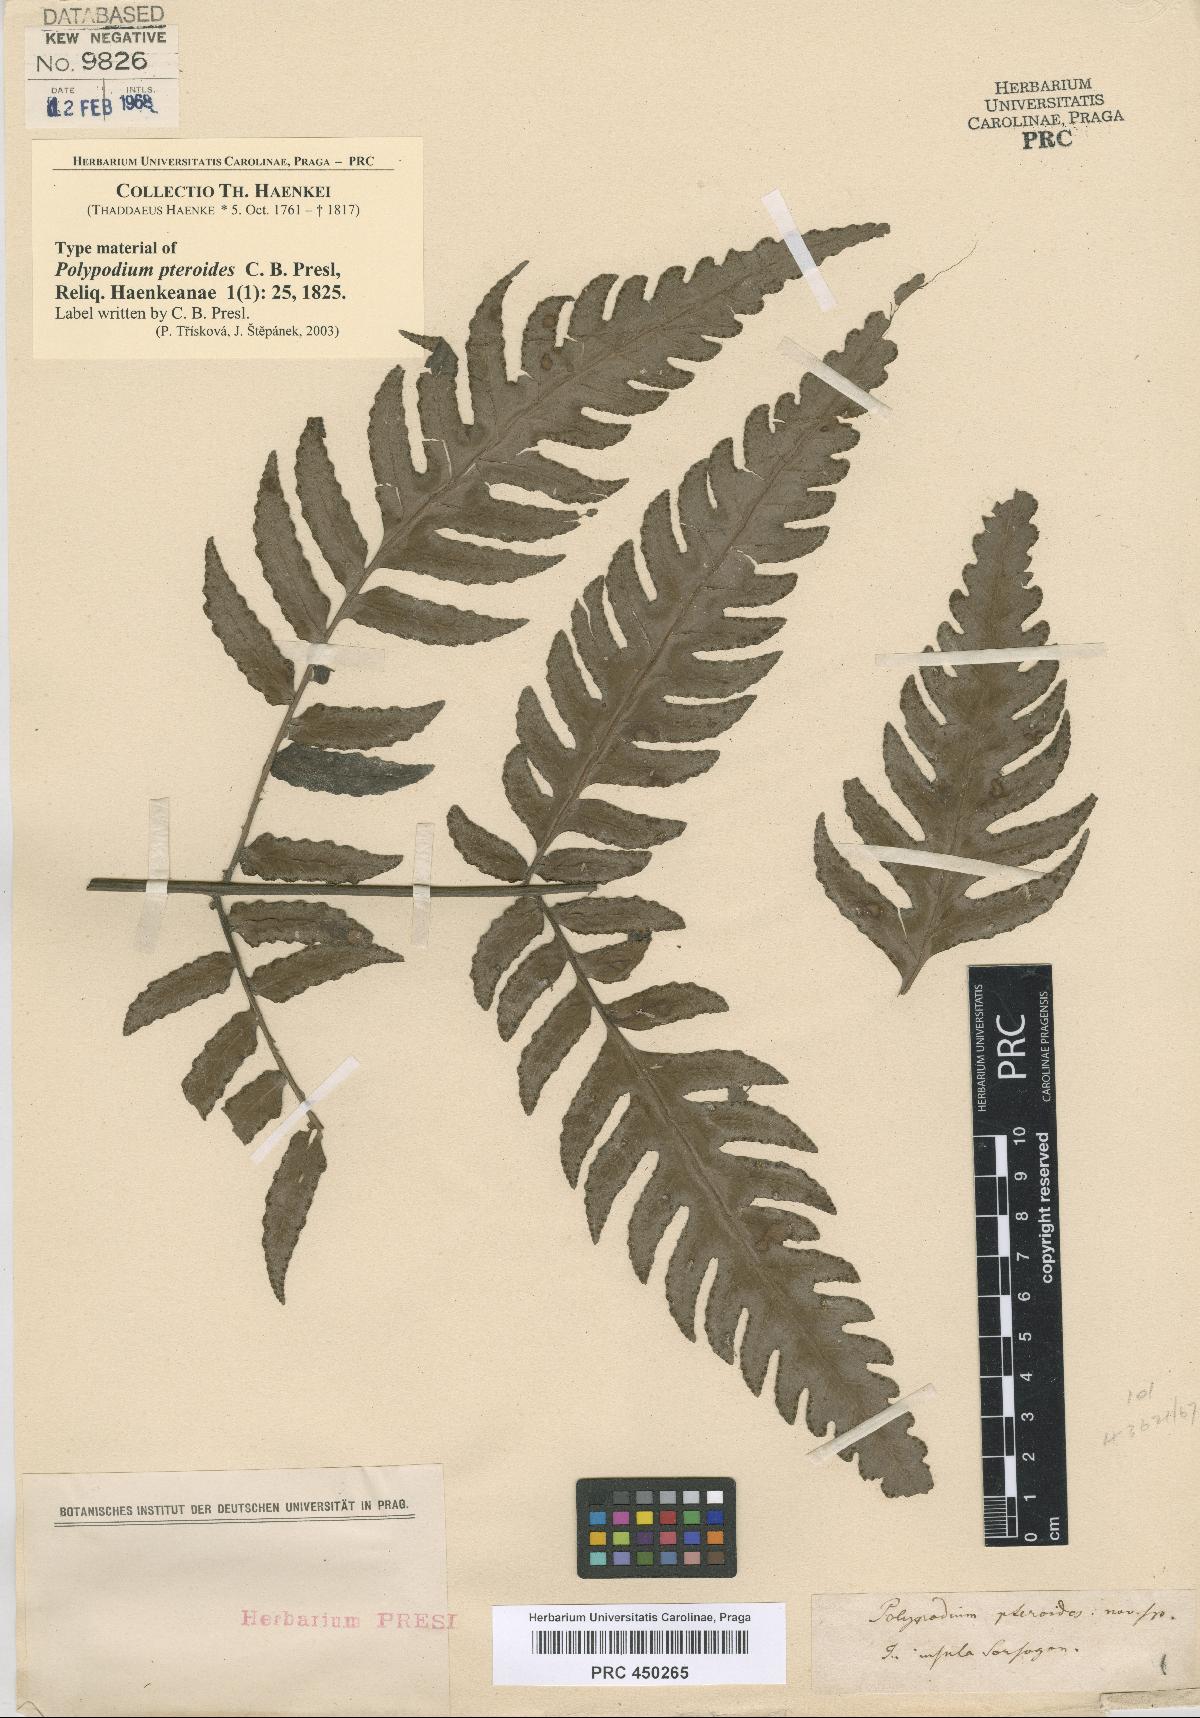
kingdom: Plantae
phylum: Tracheophyta
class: Polypodiopsida
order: Polypodiales
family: Dryopteridaceae
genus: Pleocnemia
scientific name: Pleocnemia brongniartii
